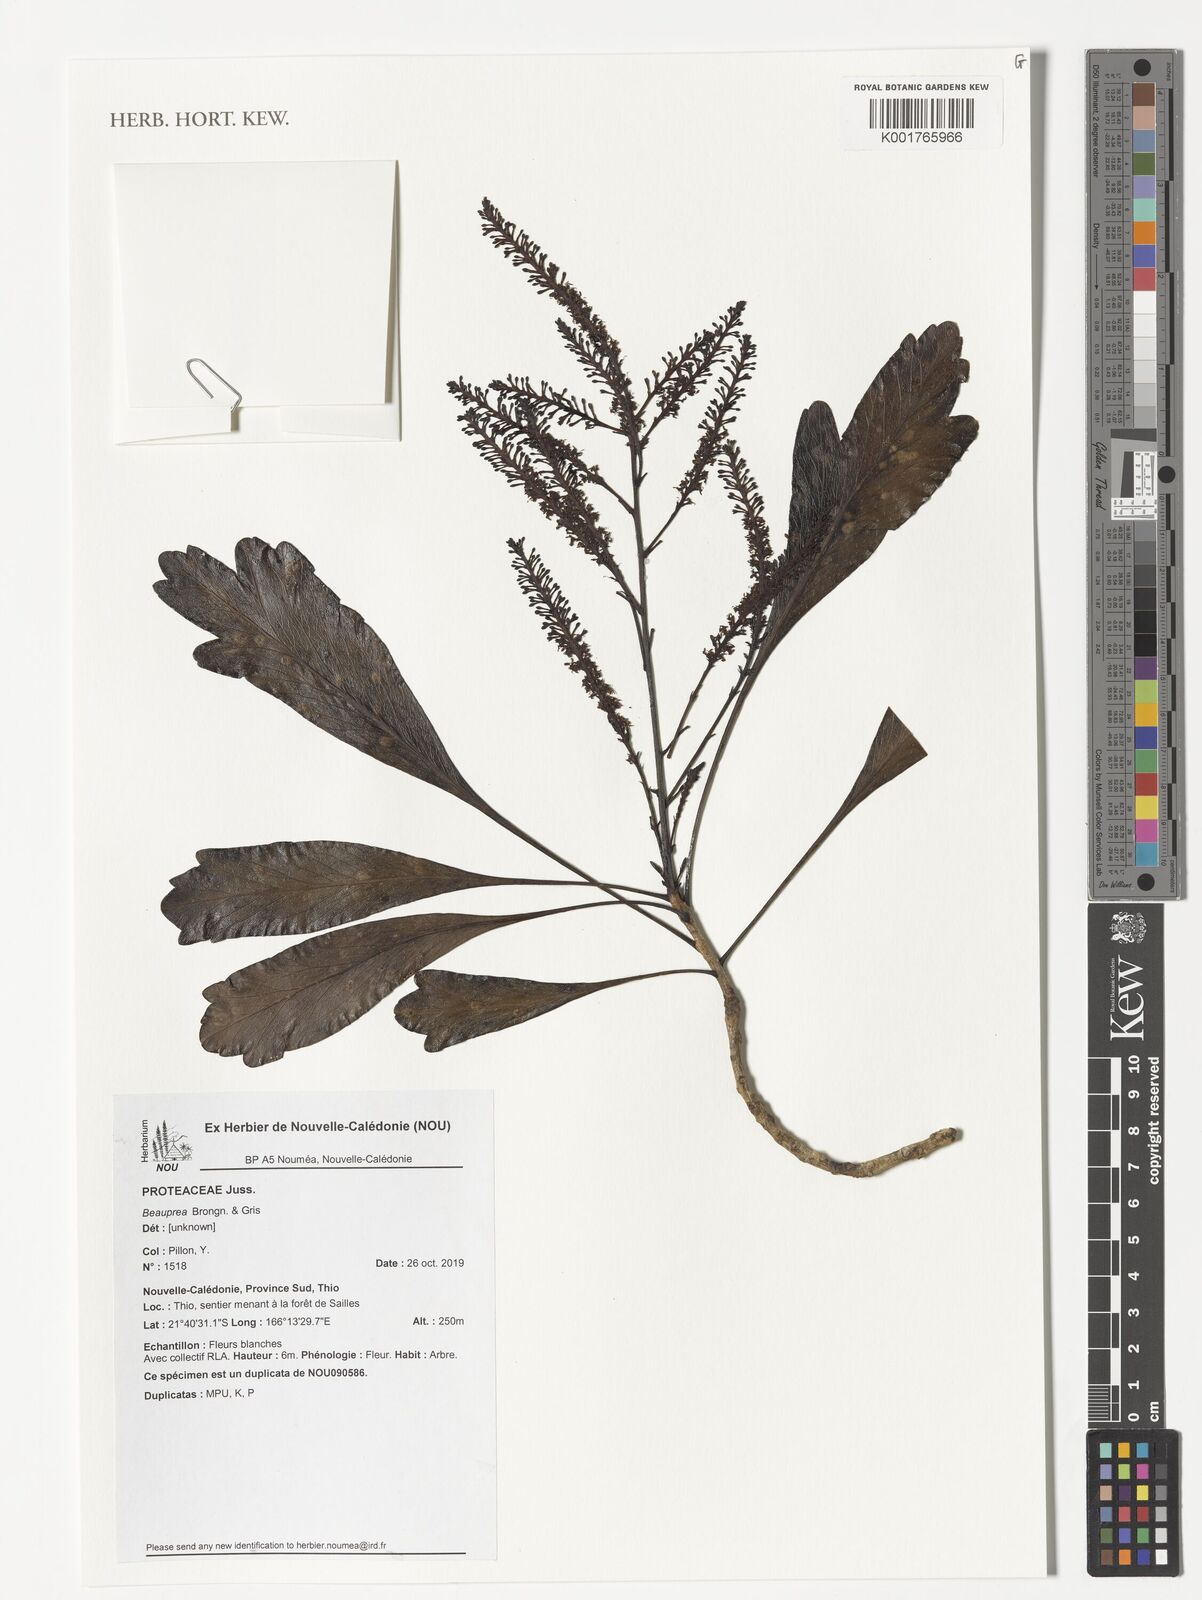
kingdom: Plantae
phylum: Tracheophyta
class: Magnoliopsida
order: Proteales
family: Proteaceae
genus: Beauprea
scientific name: Beauprea
